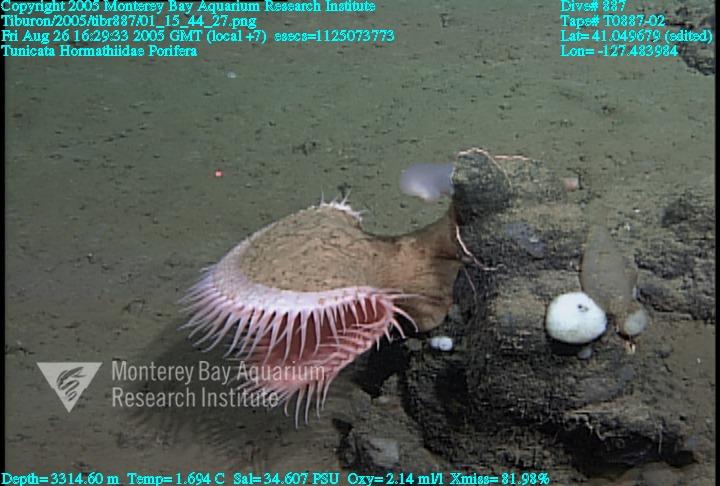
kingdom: Animalia
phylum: Porifera
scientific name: Porifera
